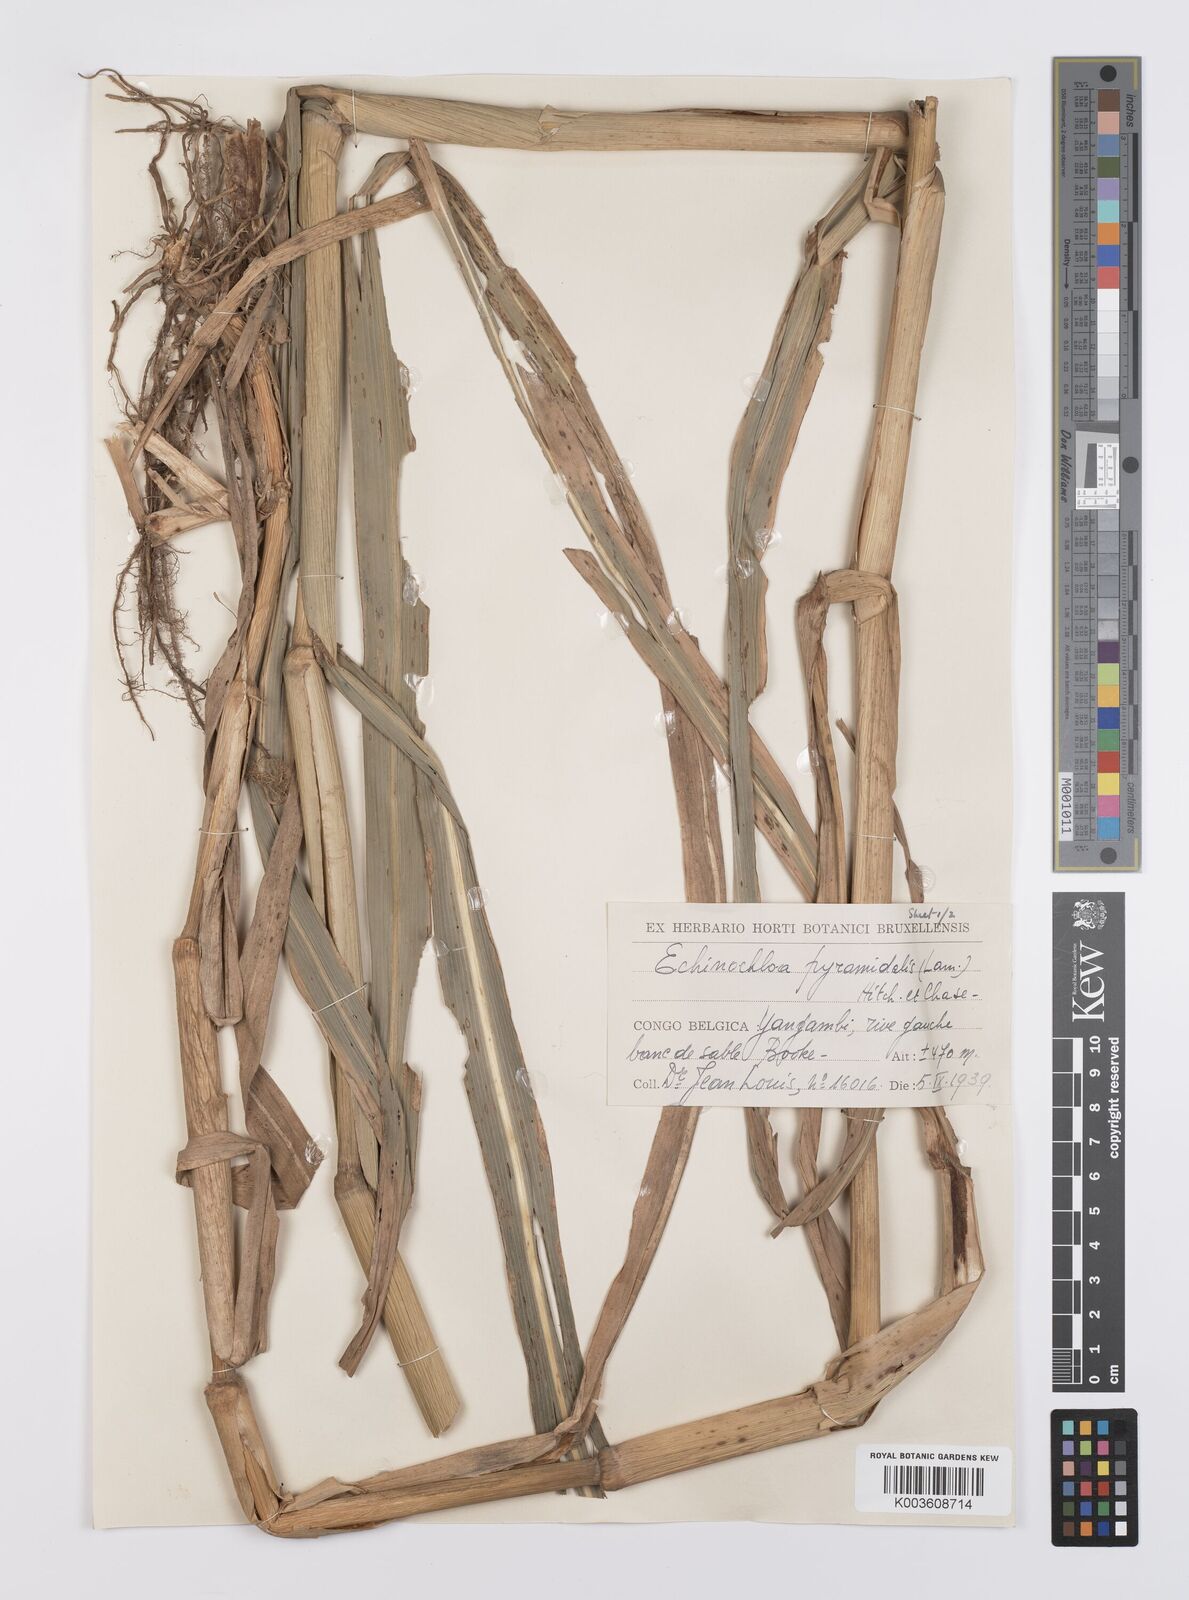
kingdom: Plantae
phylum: Tracheophyta
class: Liliopsida
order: Poales
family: Poaceae
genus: Echinochloa
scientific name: Echinochloa pyramidalis
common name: Antelope grass
